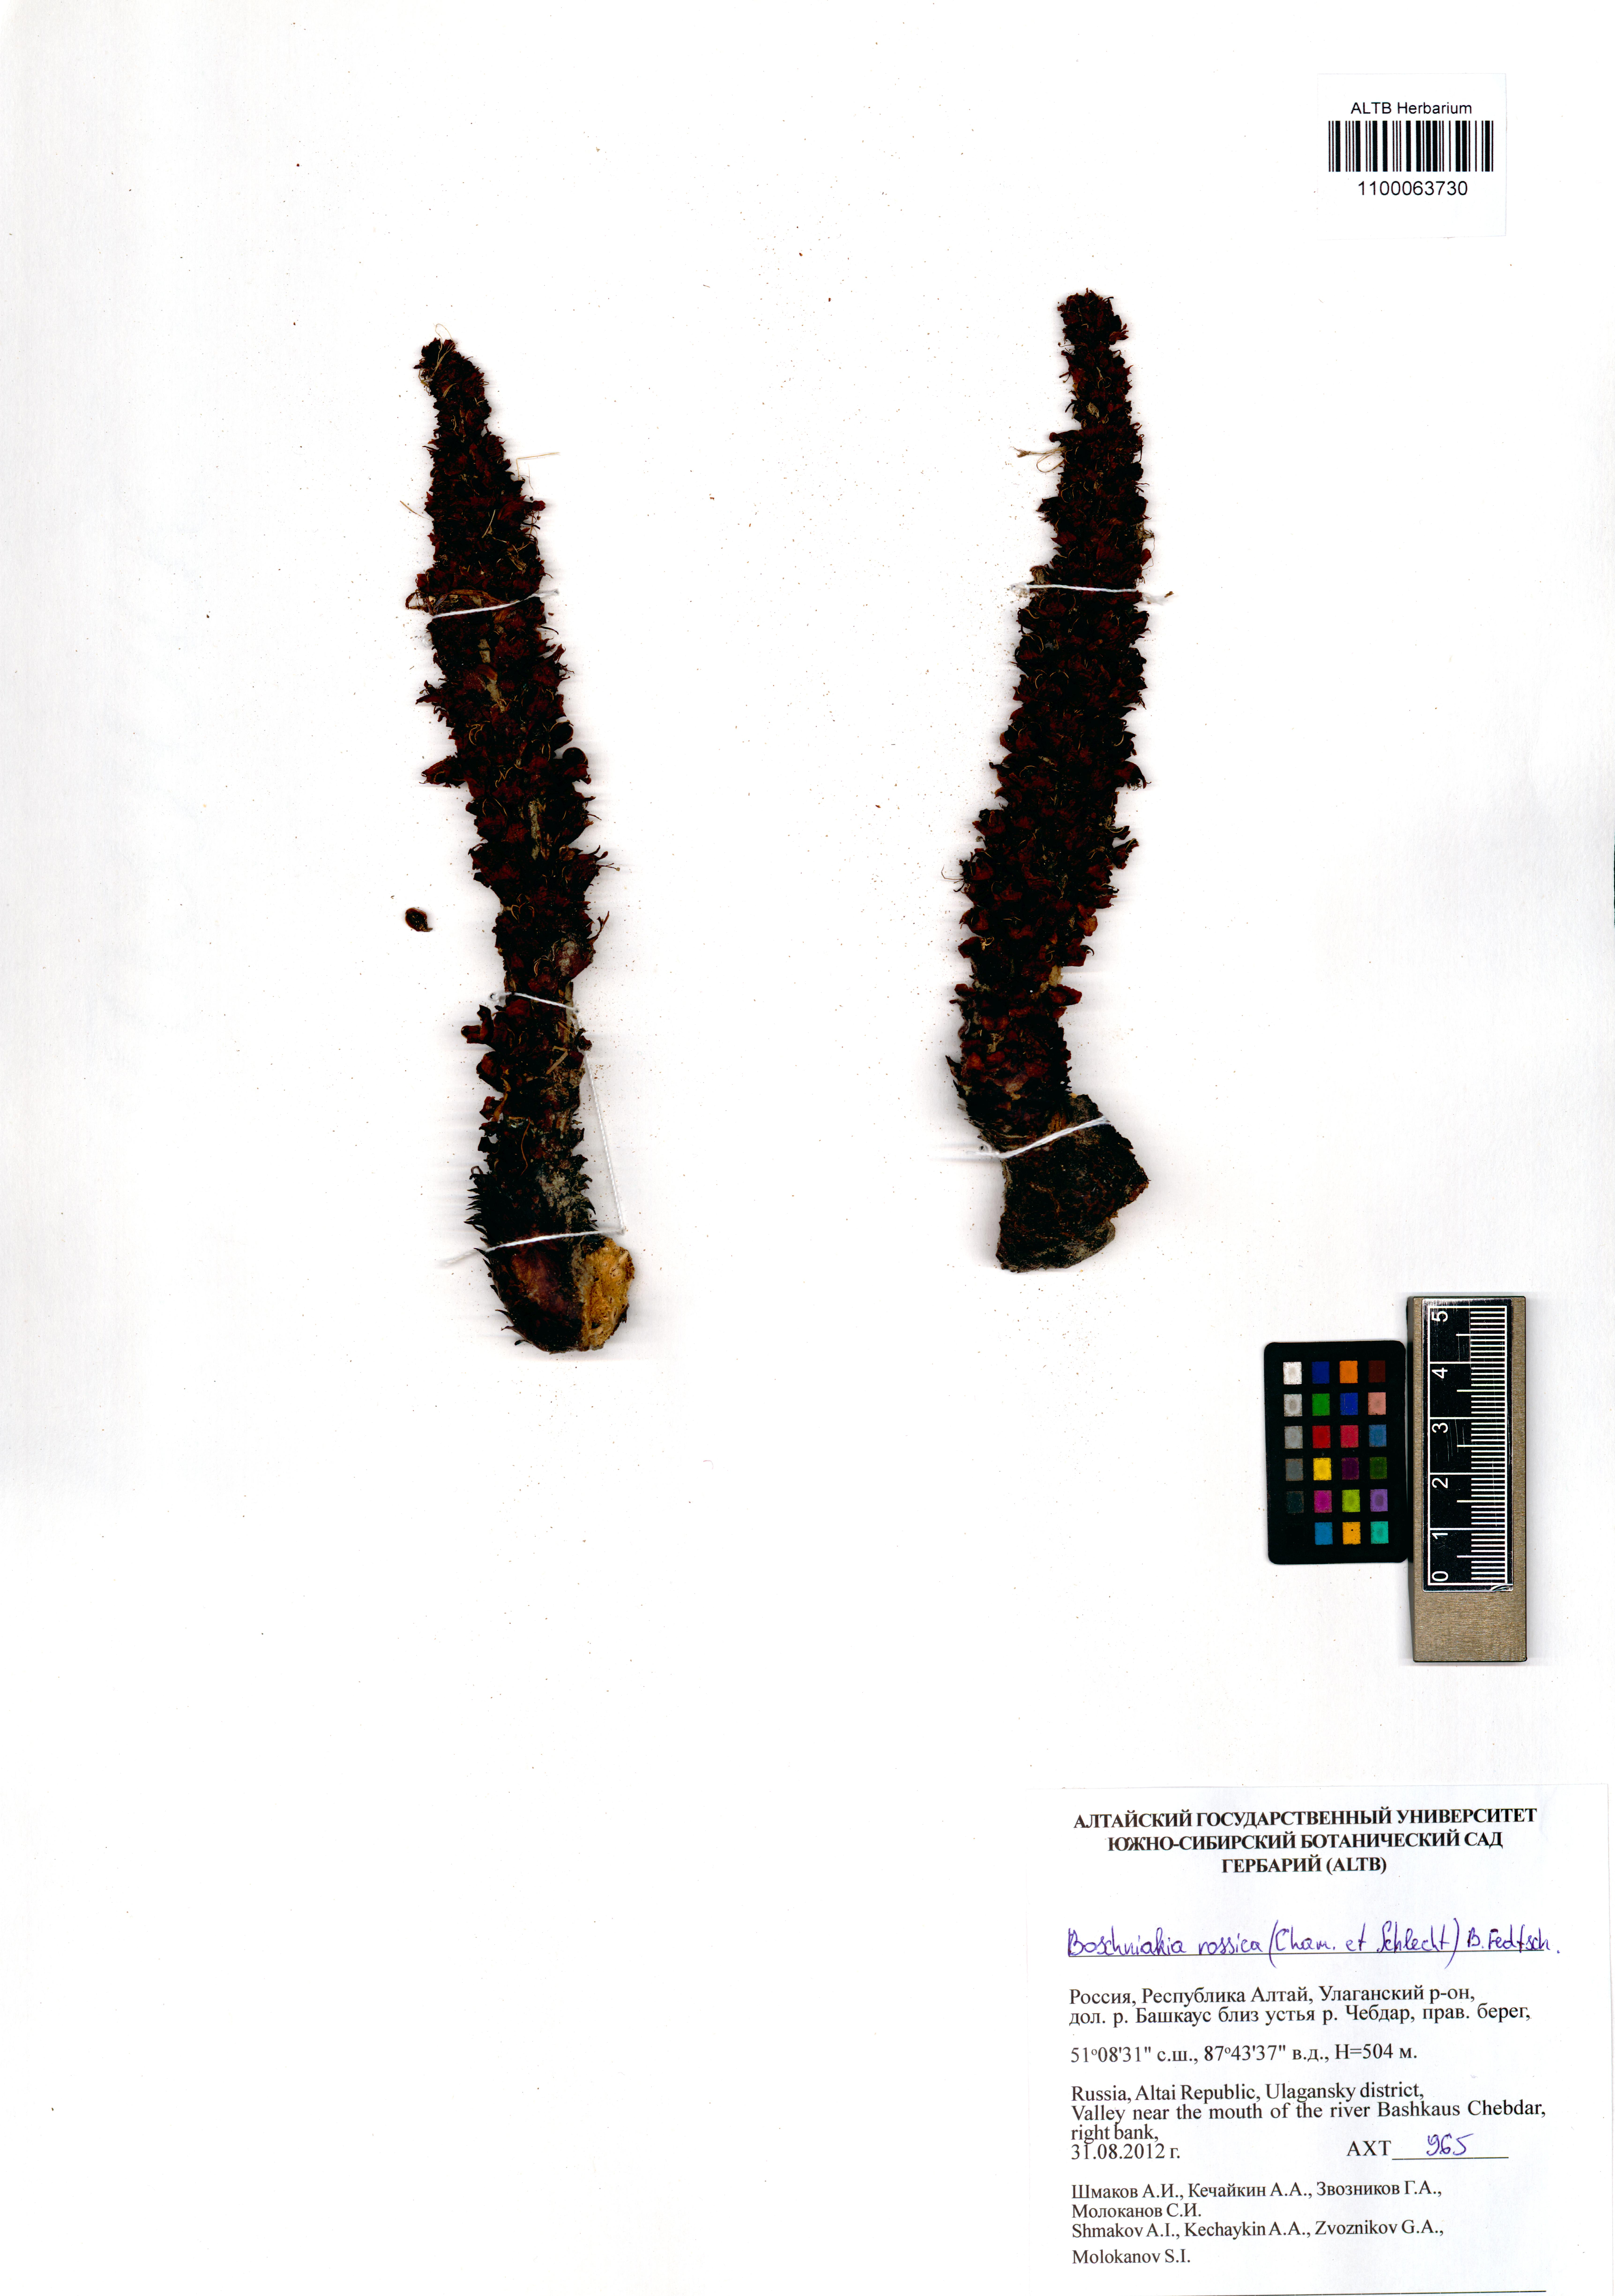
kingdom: Plantae
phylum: Tracheophyta
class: Magnoliopsida
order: Lamiales
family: Orobanchaceae
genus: Boschniakia
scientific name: Boschniakia rossica
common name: Poque
